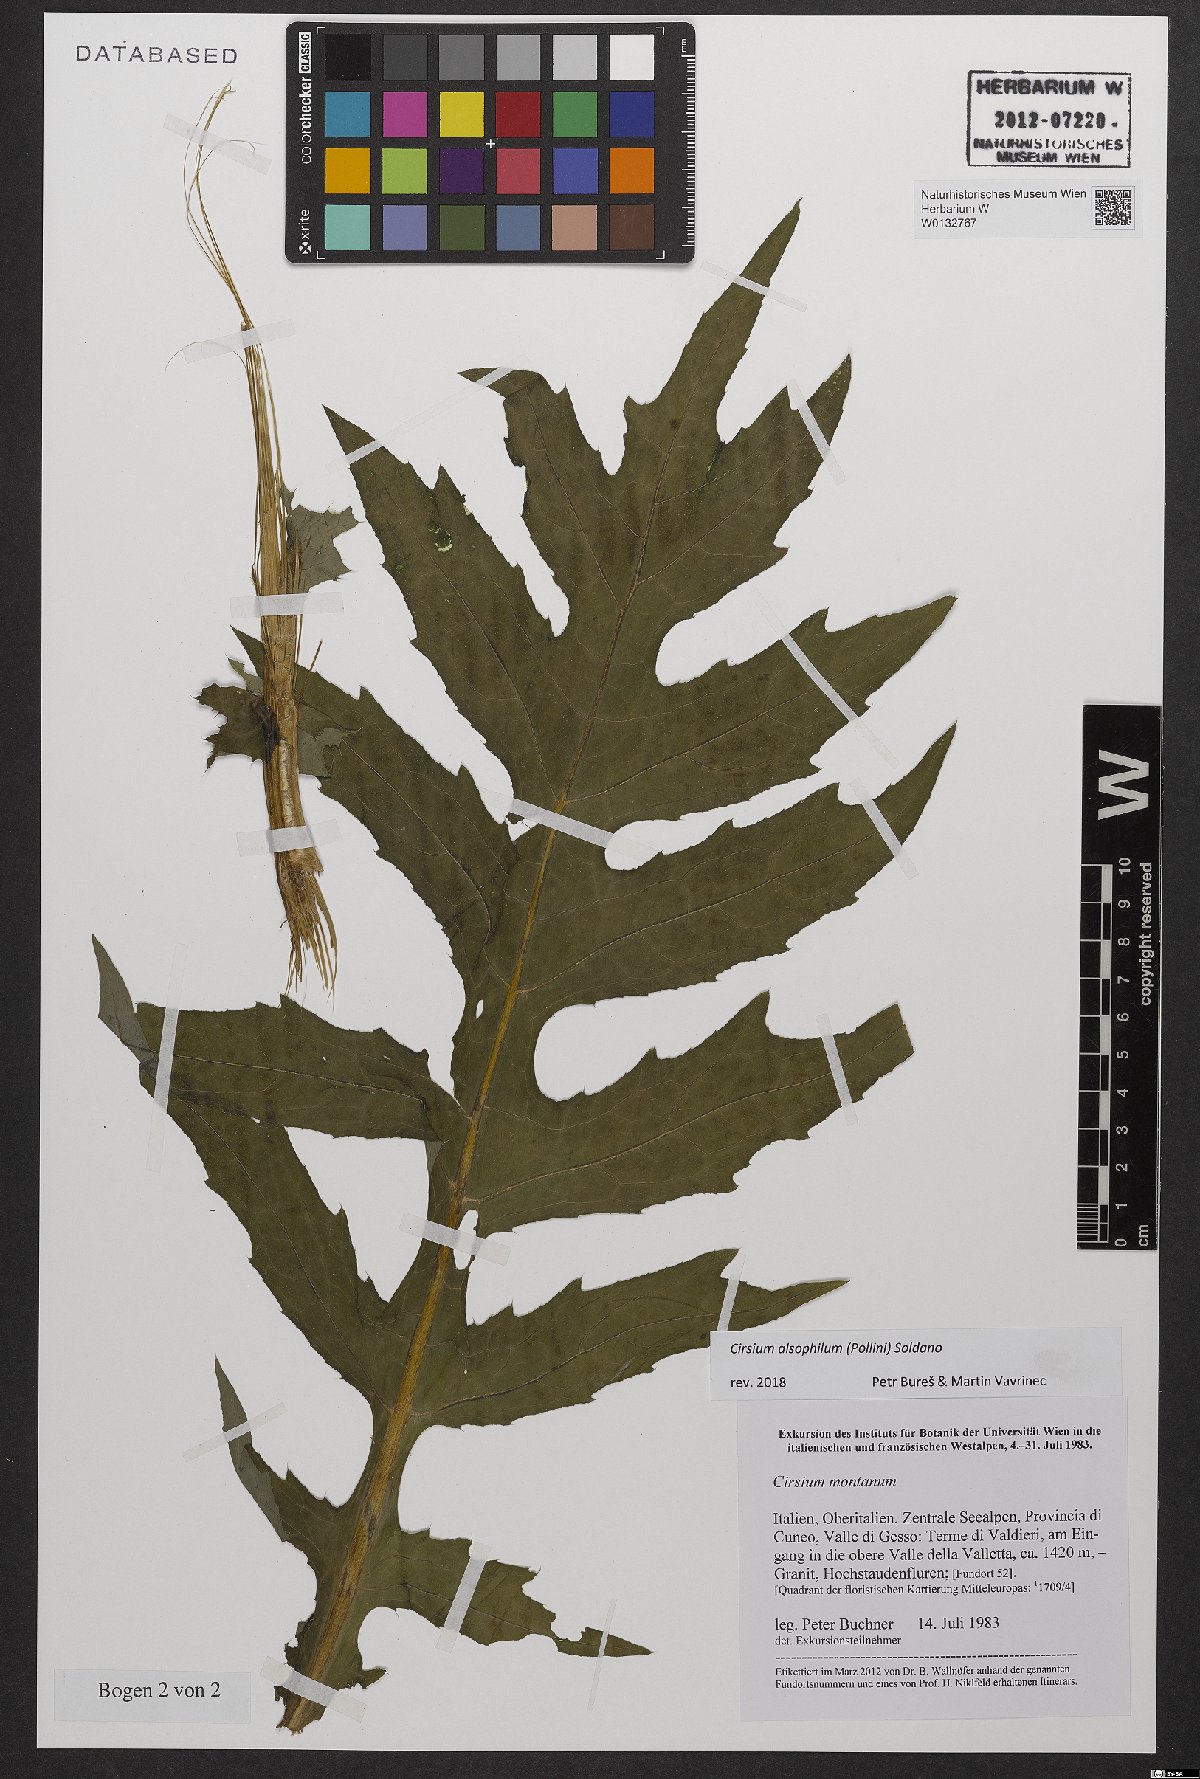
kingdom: Plantae
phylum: Tracheophyta
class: Magnoliopsida
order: Asterales
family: Asteraceae
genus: Cirsium
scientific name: Cirsium alsophilum
